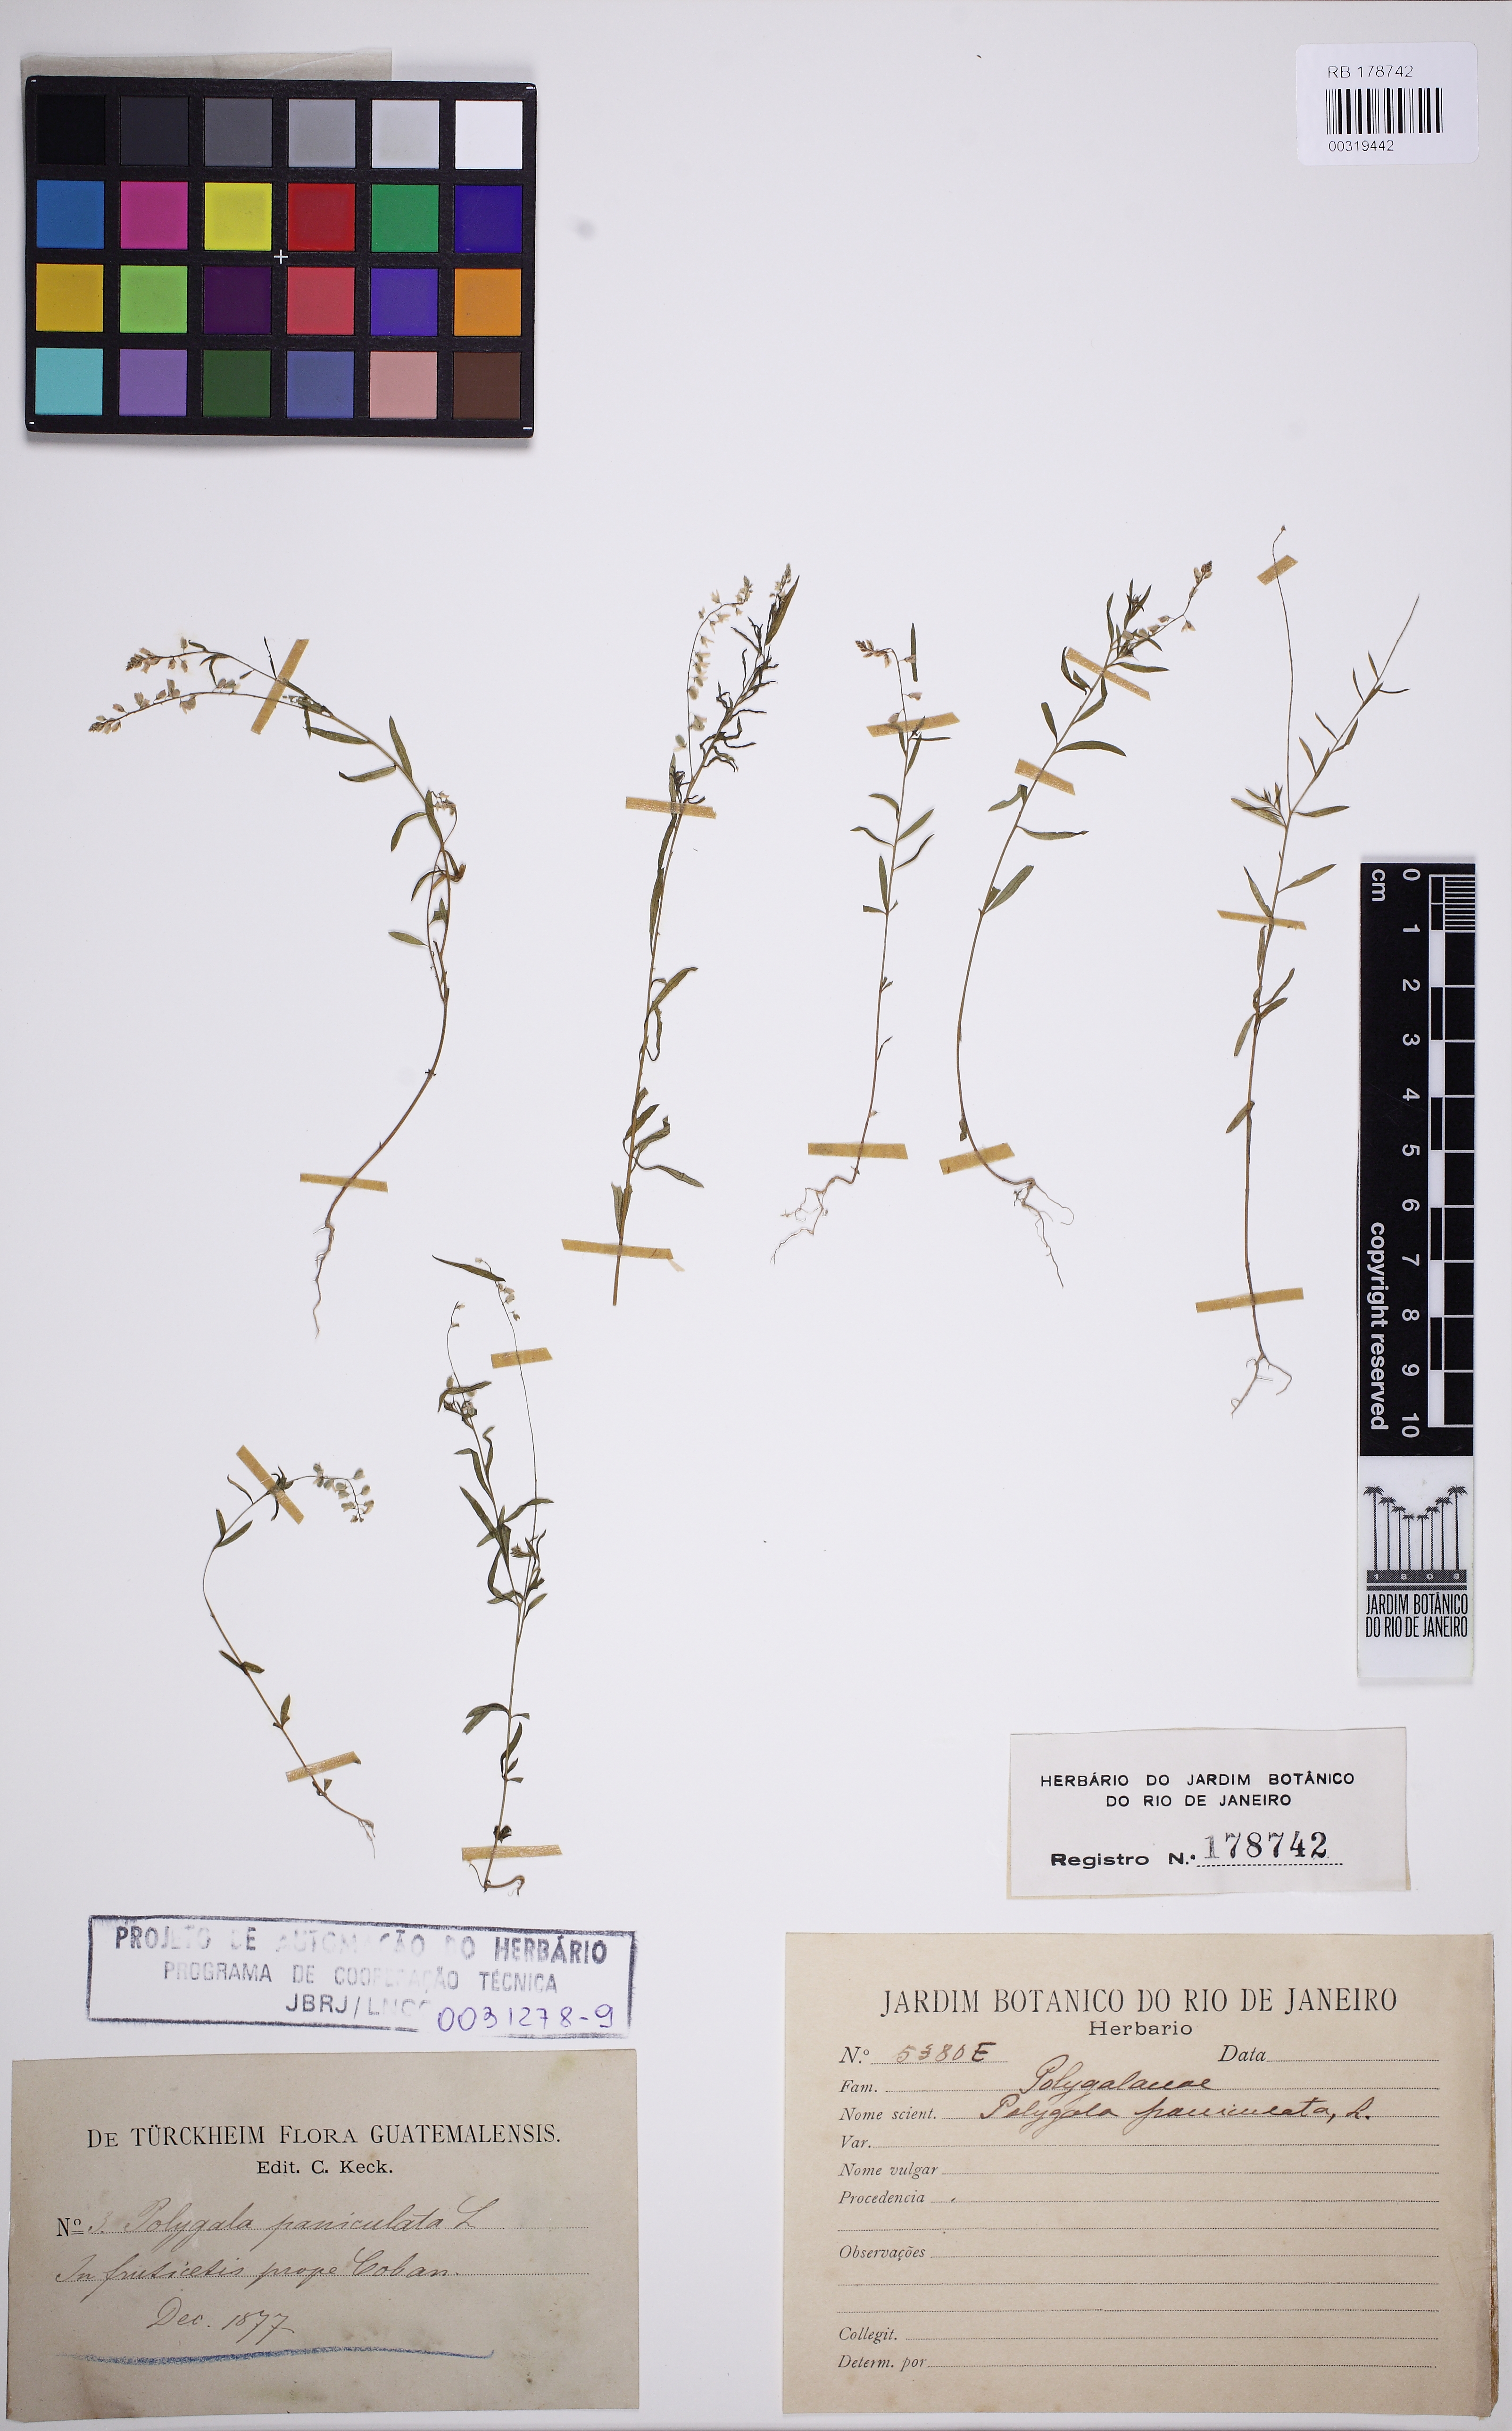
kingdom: Plantae
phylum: Tracheophyta
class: Magnoliopsida
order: Fabales
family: Polygalaceae
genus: Polygala
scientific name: Polygala paniculata
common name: Orosne
